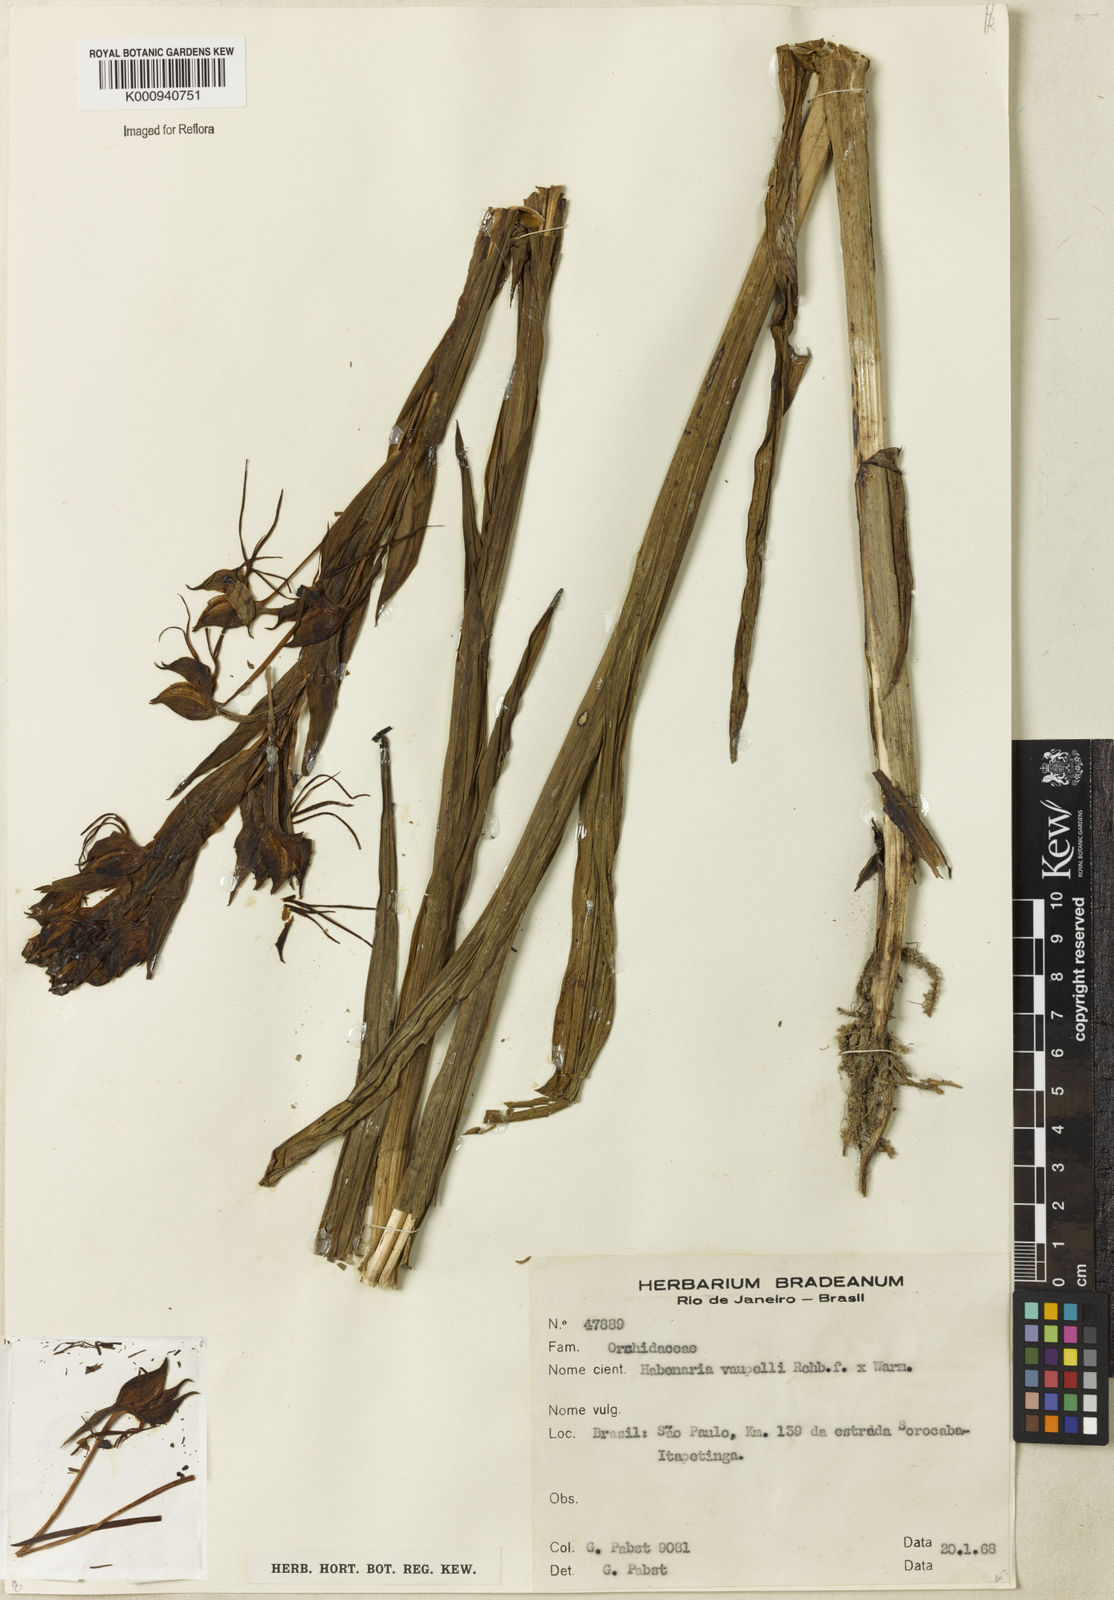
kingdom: Plantae
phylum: Tracheophyta
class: Liliopsida
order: Asparagales
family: Orchidaceae
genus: Habenaria
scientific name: Habenaria johannensis
